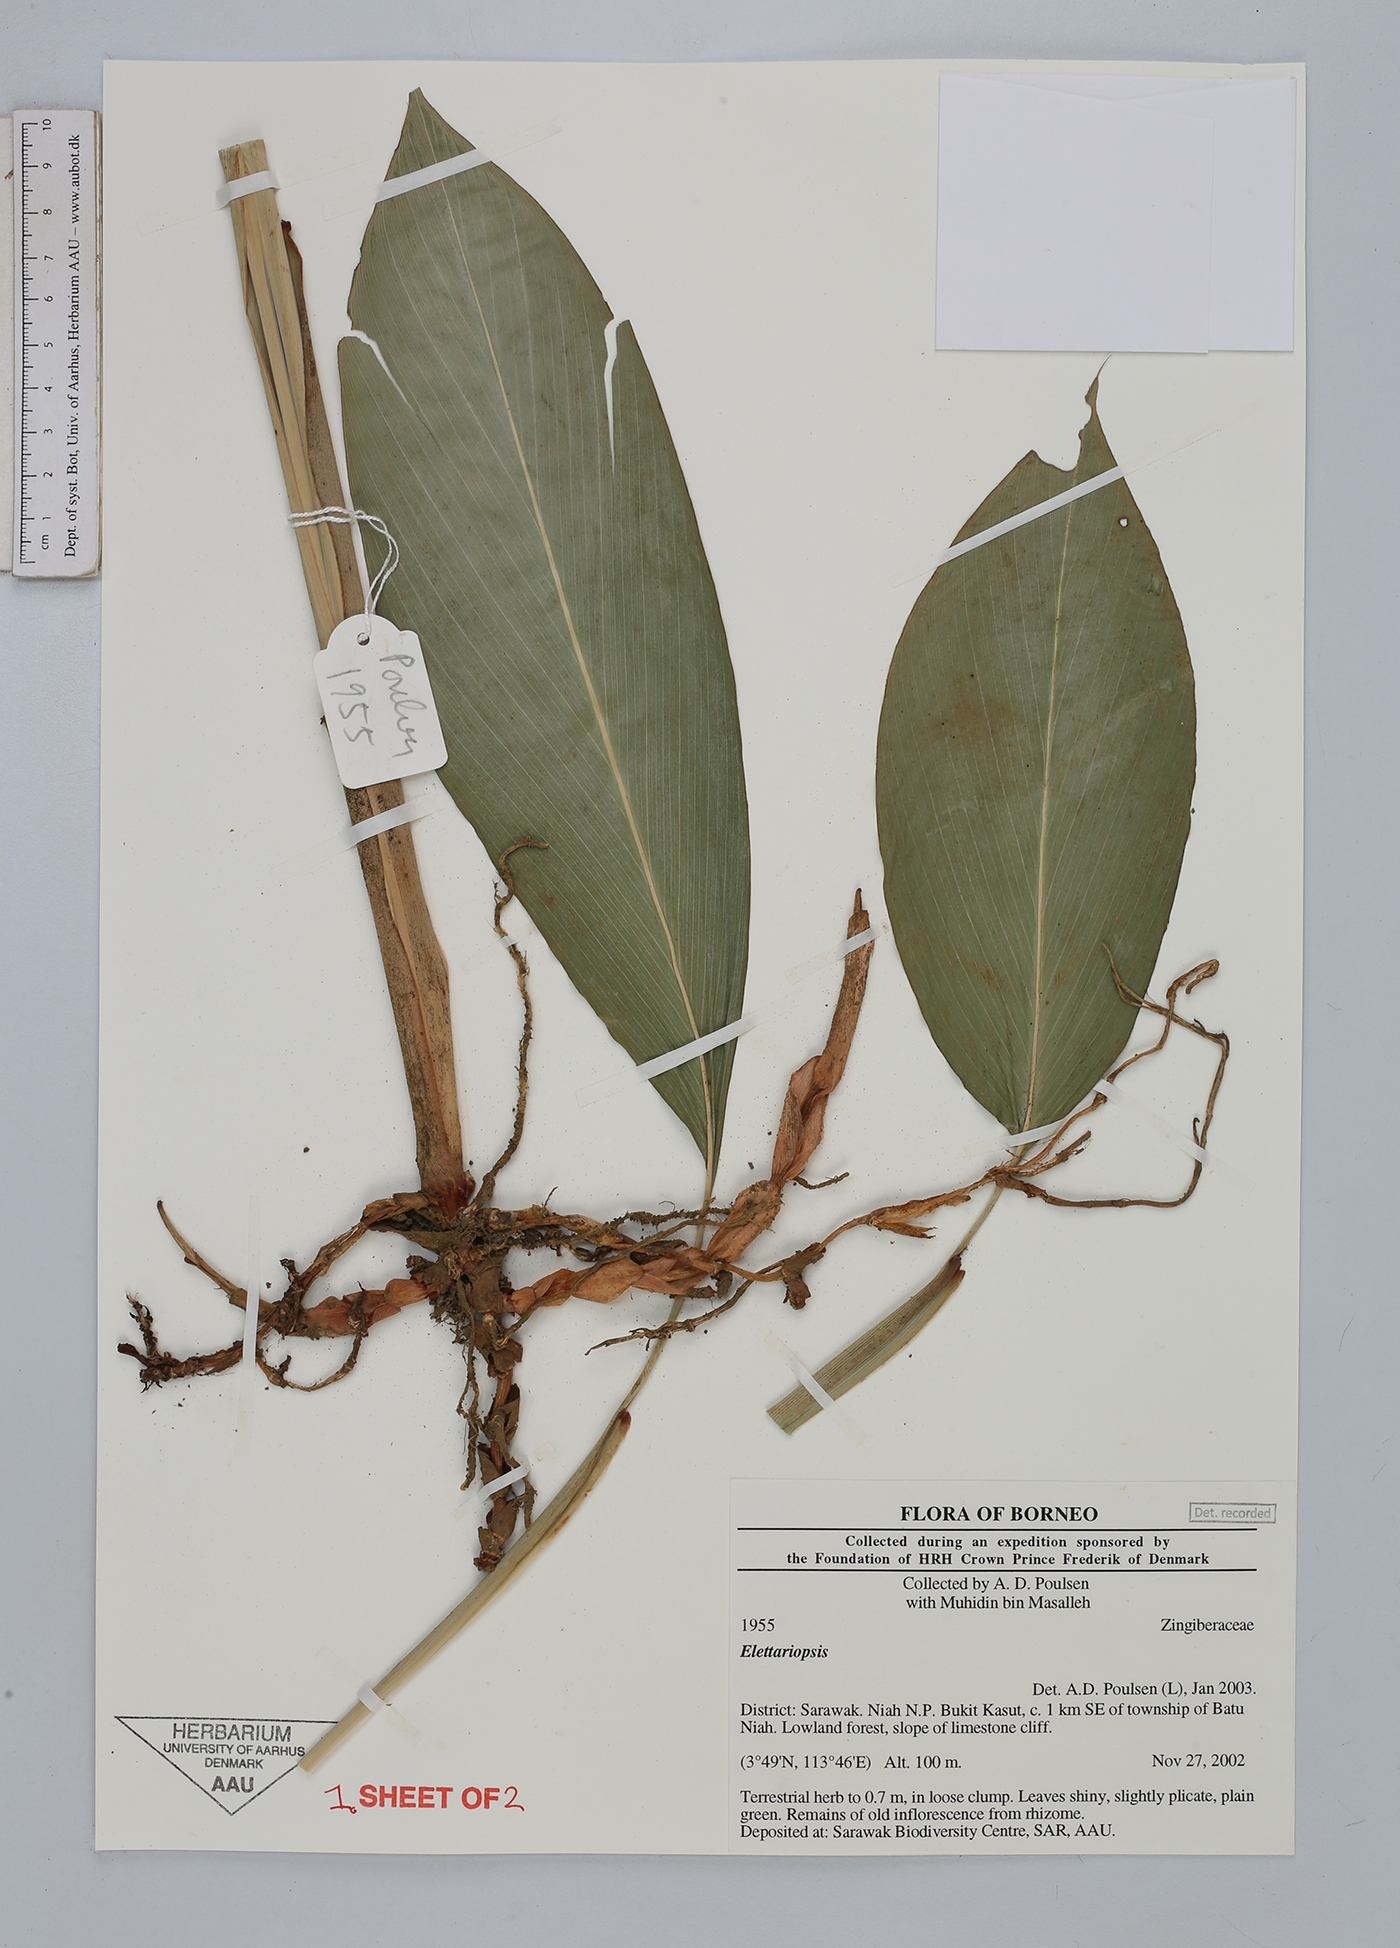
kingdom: Plantae
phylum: Tracheophyta
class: Liliopsida
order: Zingiberales
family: Zingiberaceae
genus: Amomum
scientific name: Amomum
